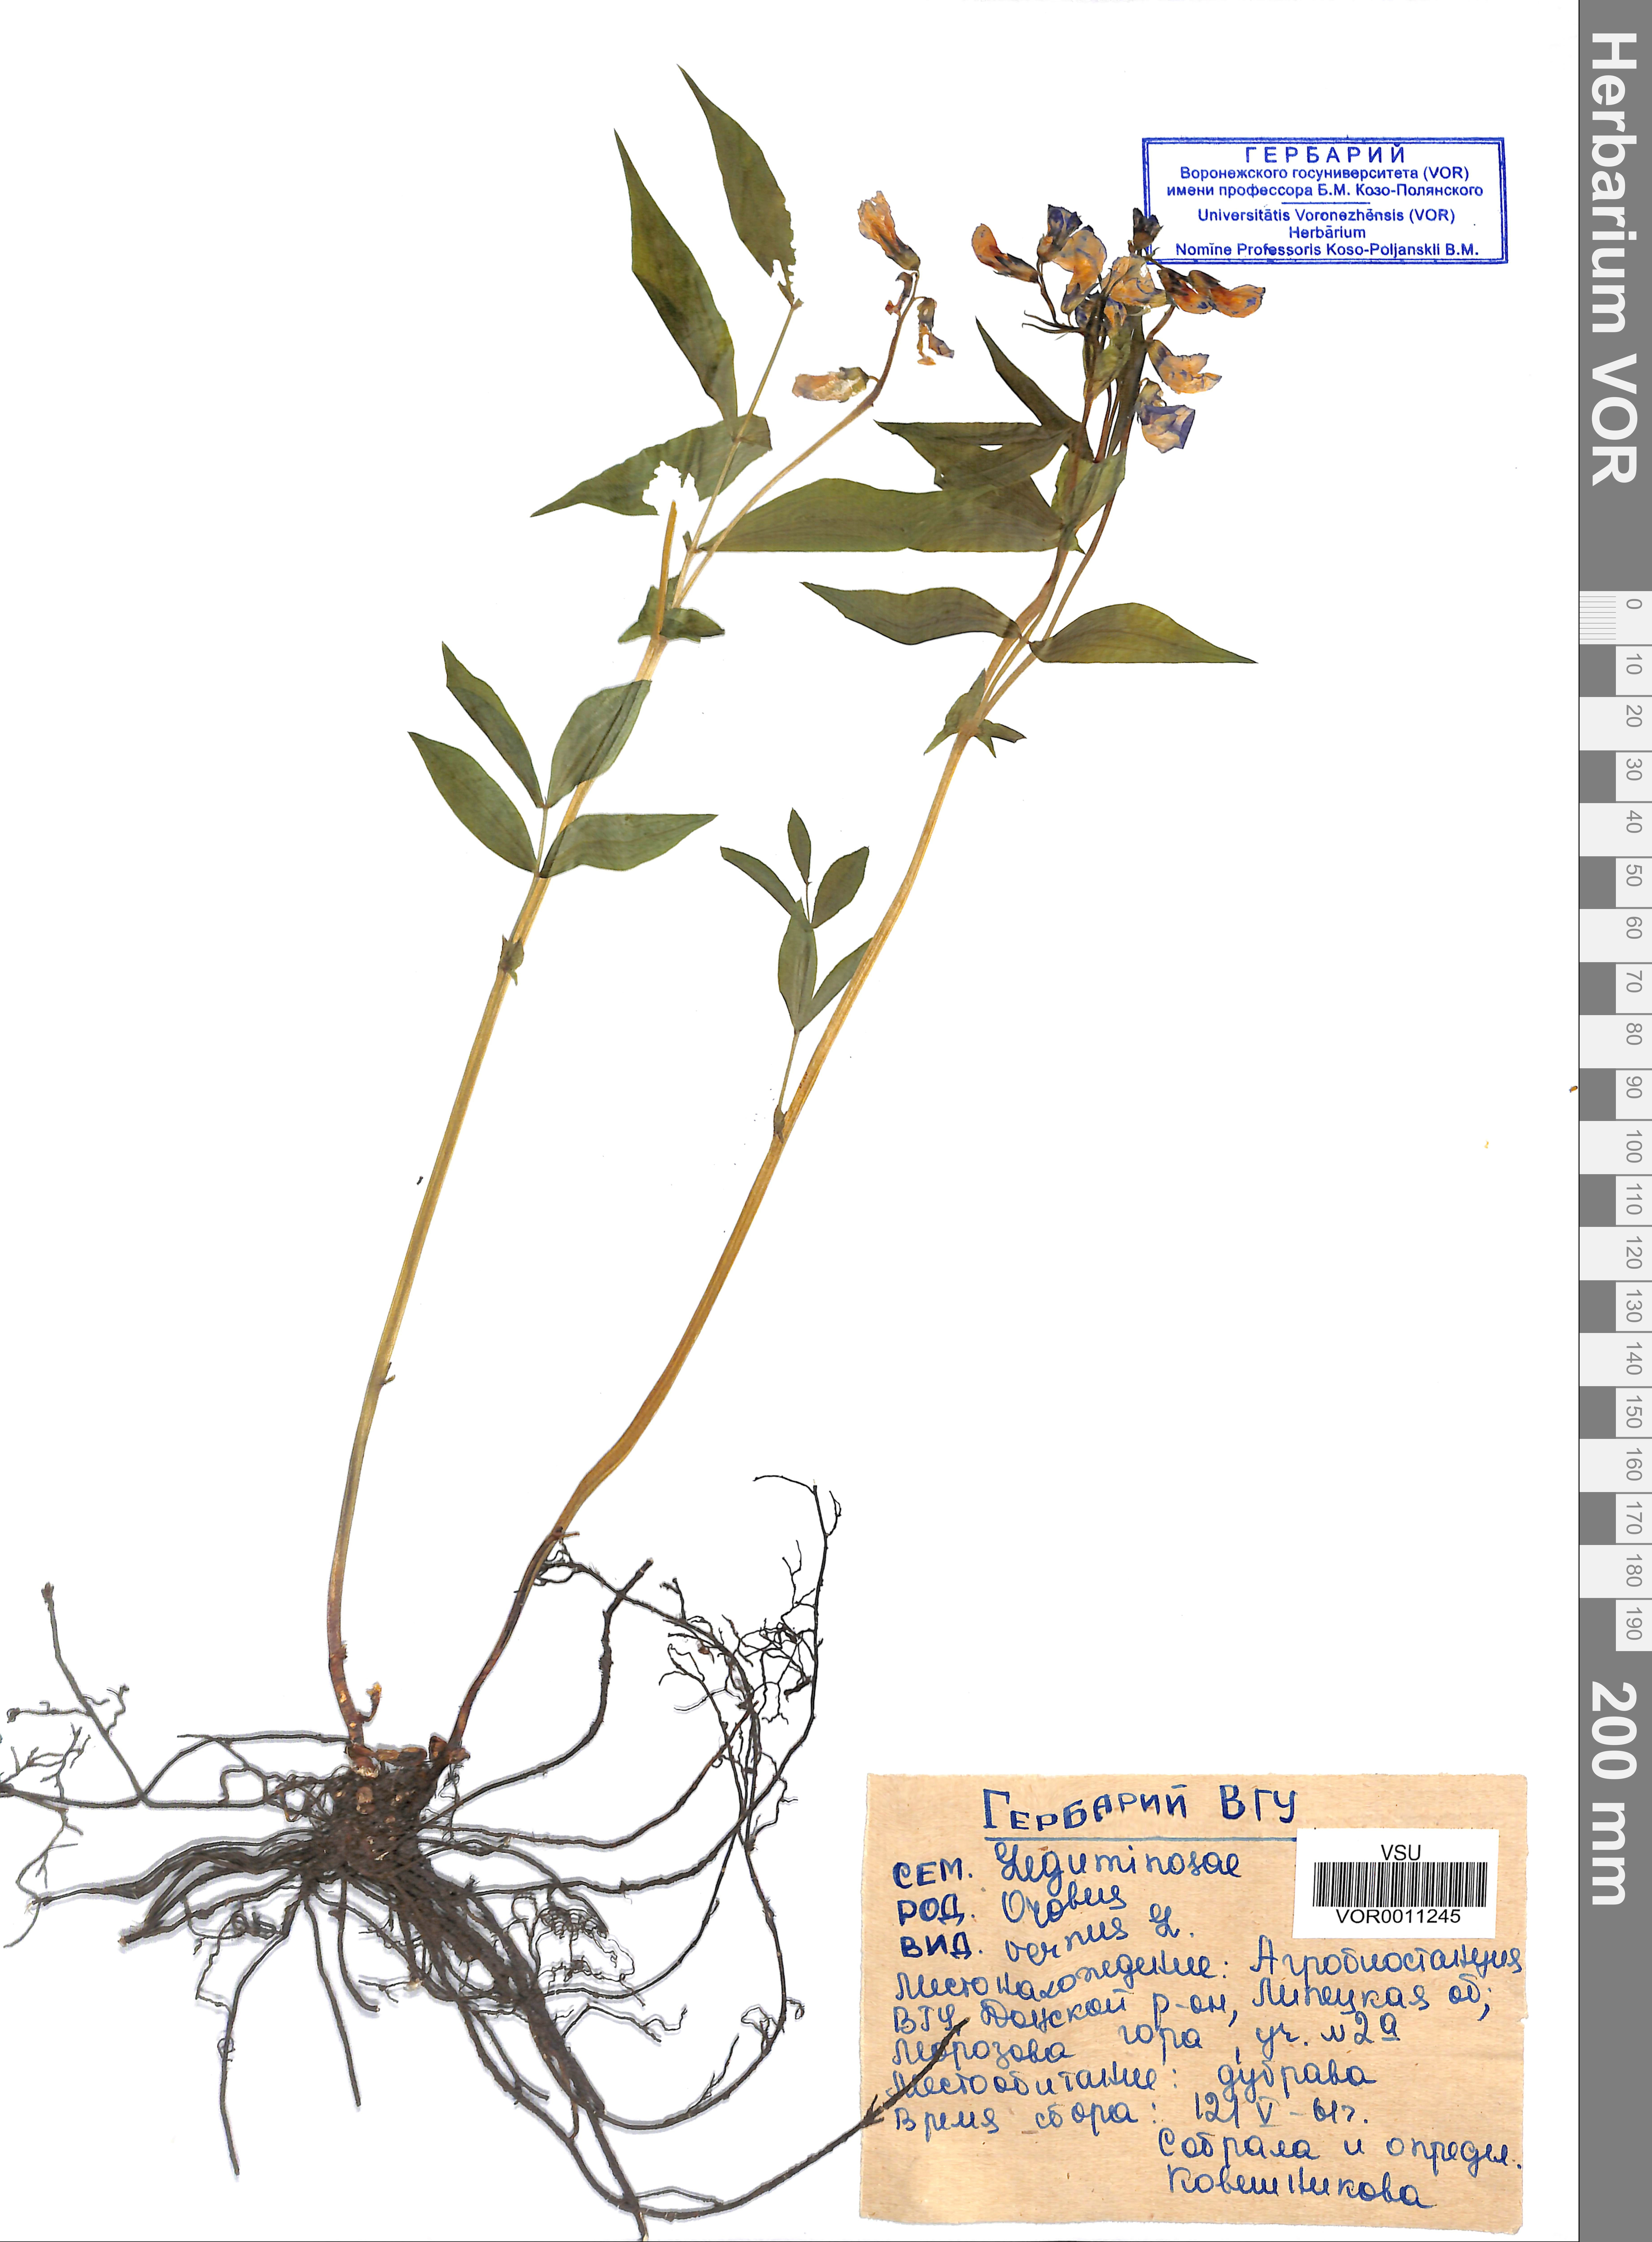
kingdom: Plantae
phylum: Tracheophyta
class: Magnoliopsida
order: Fabales
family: Fabaceae
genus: Lathyrus
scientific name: Lathyrus vernus
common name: Spring pea
